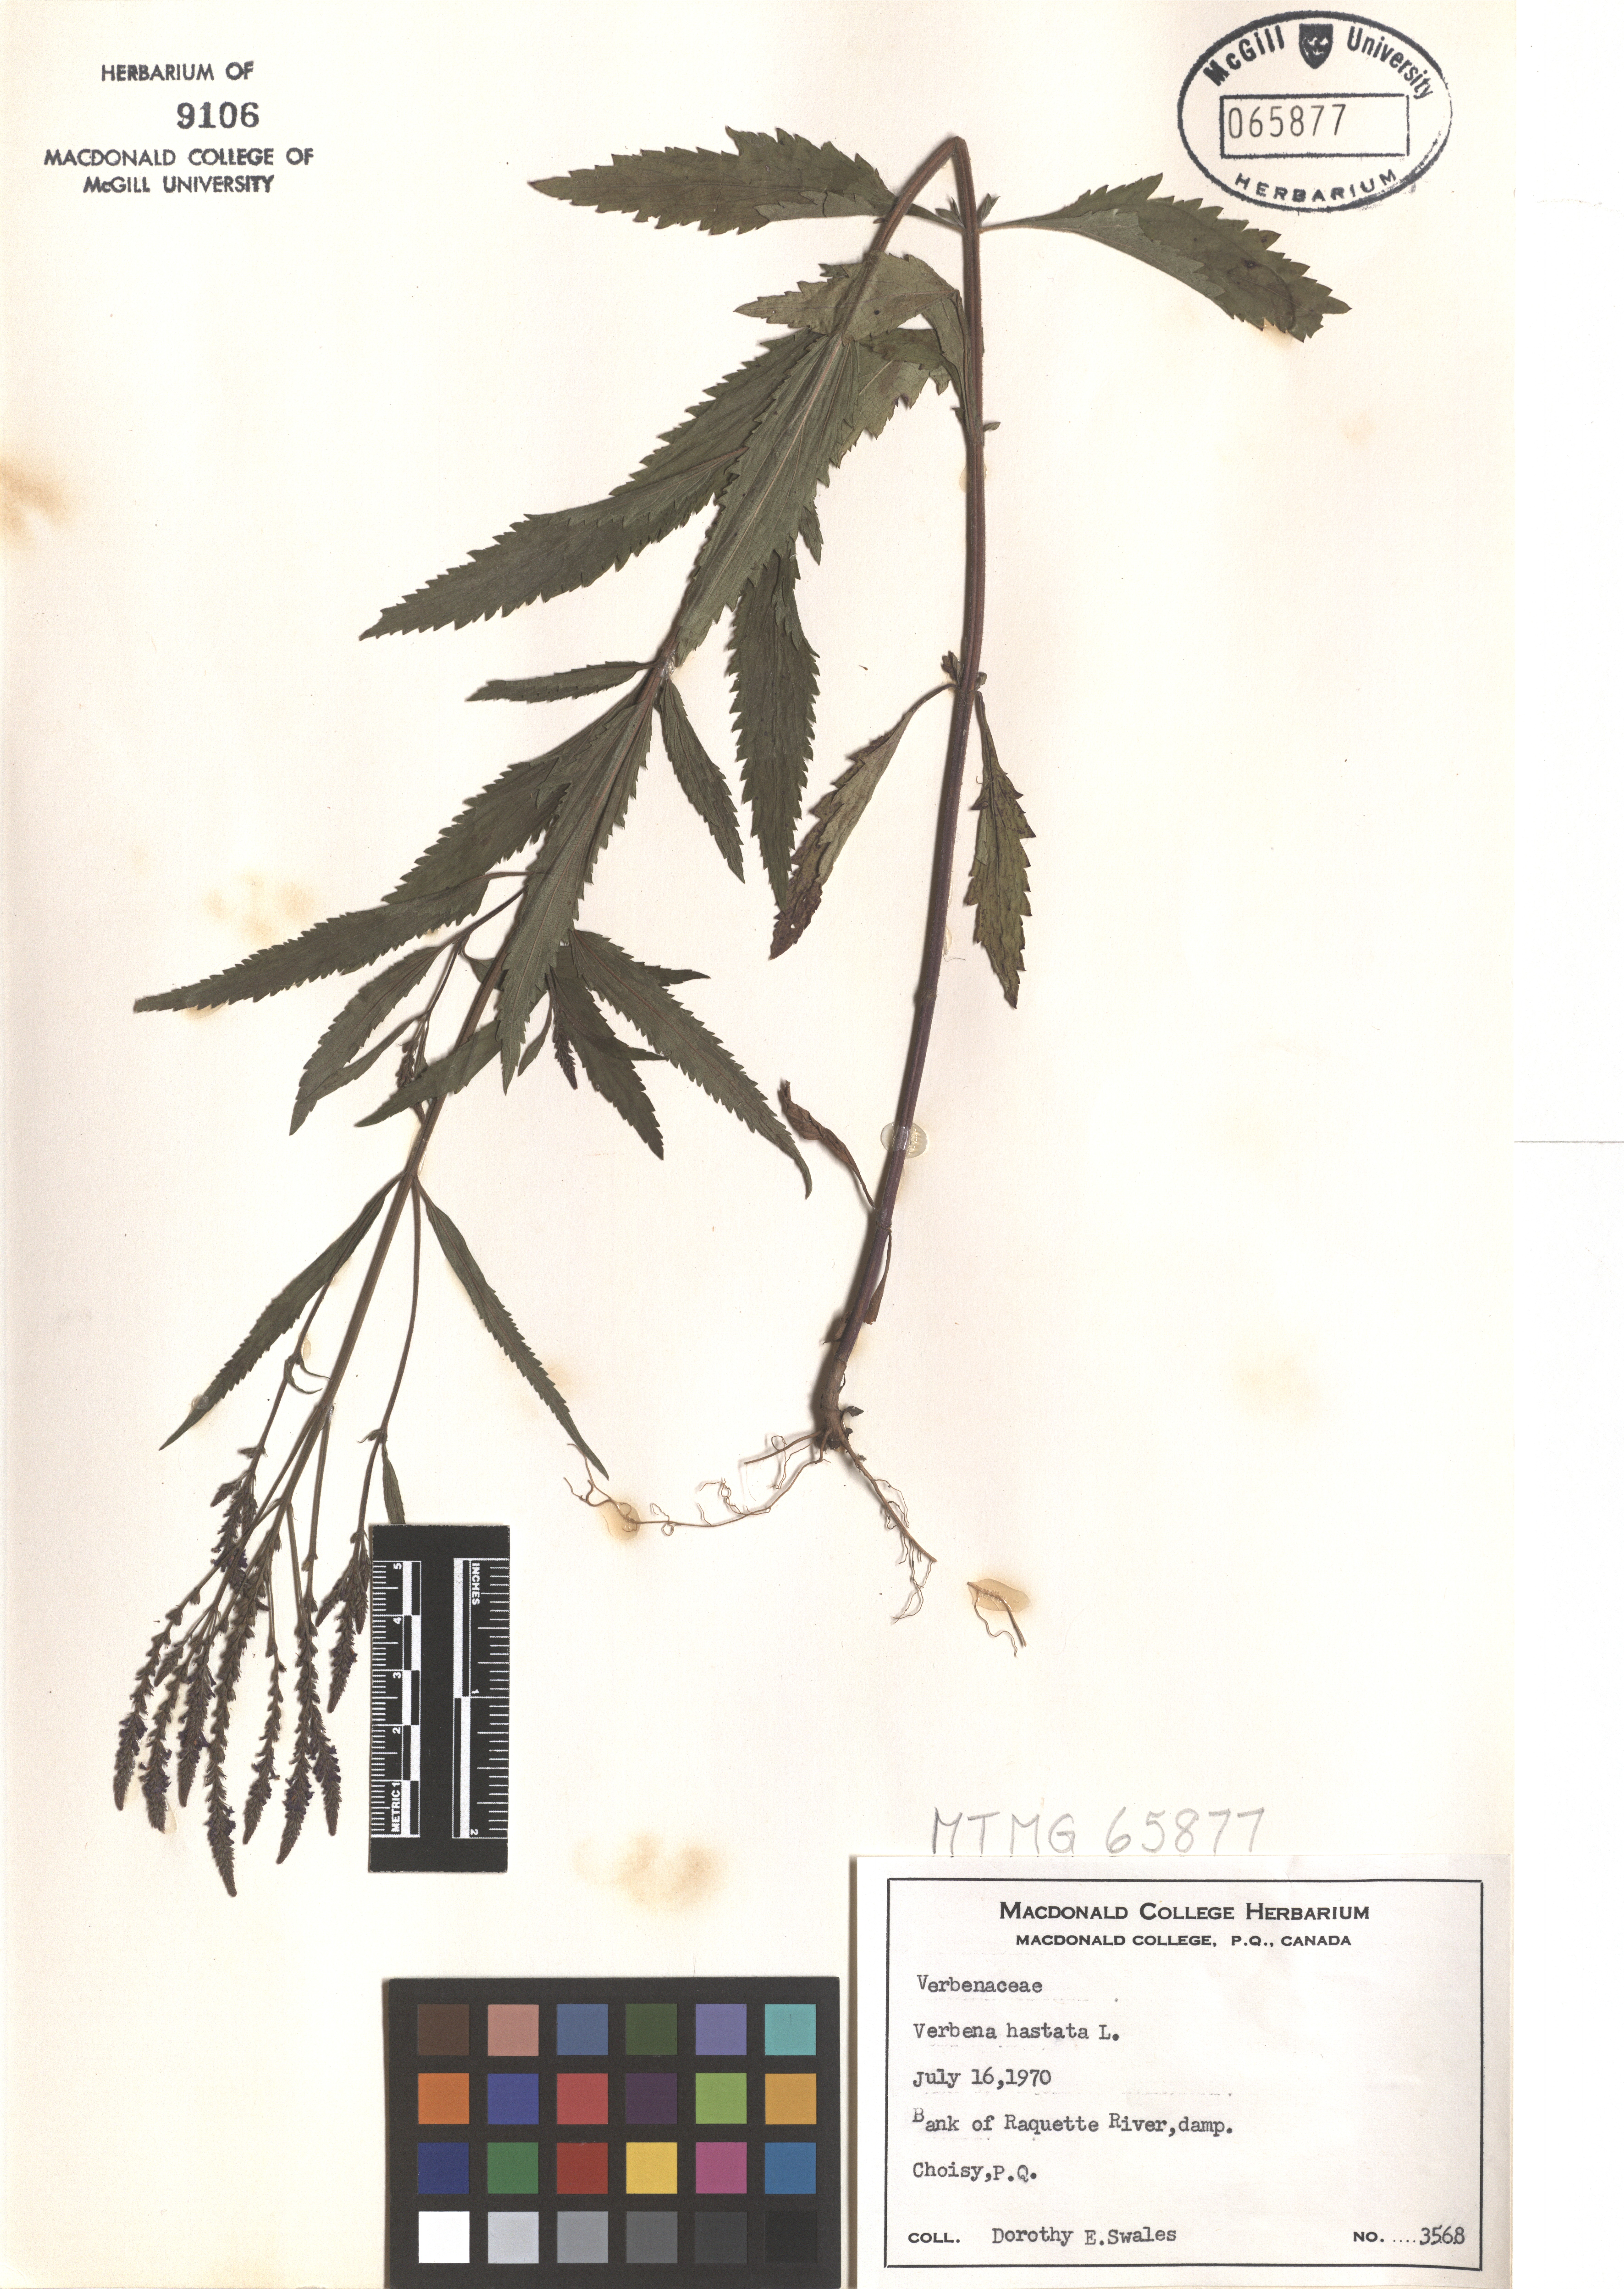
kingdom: Plantae
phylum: Tracheophyta
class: Magnoliopsida
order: Lamiales
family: Verbenaceae
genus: Verbena
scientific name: Verbena hastata
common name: American blue vervain
